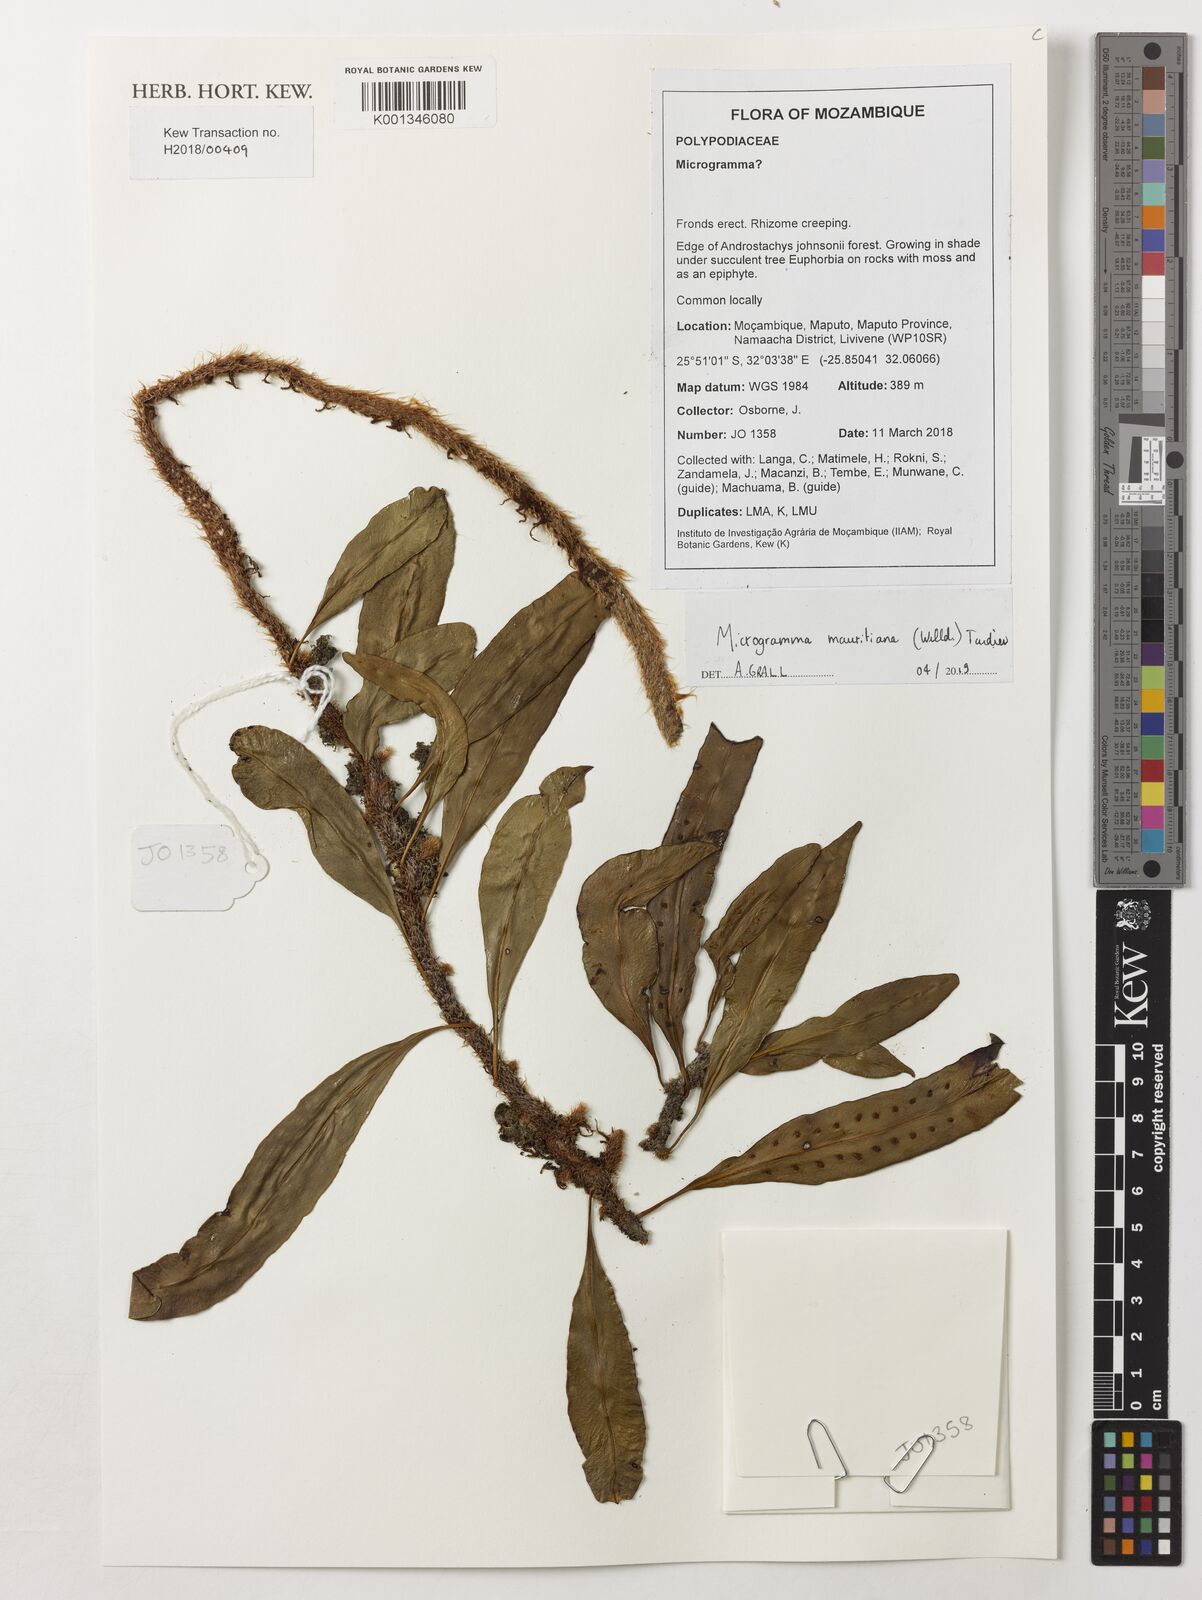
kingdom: Plantae
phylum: Tracheophyta
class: Polypodiopsida
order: Polypodiales
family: Polypodiaceae
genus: Microgramma
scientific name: Microgramma
